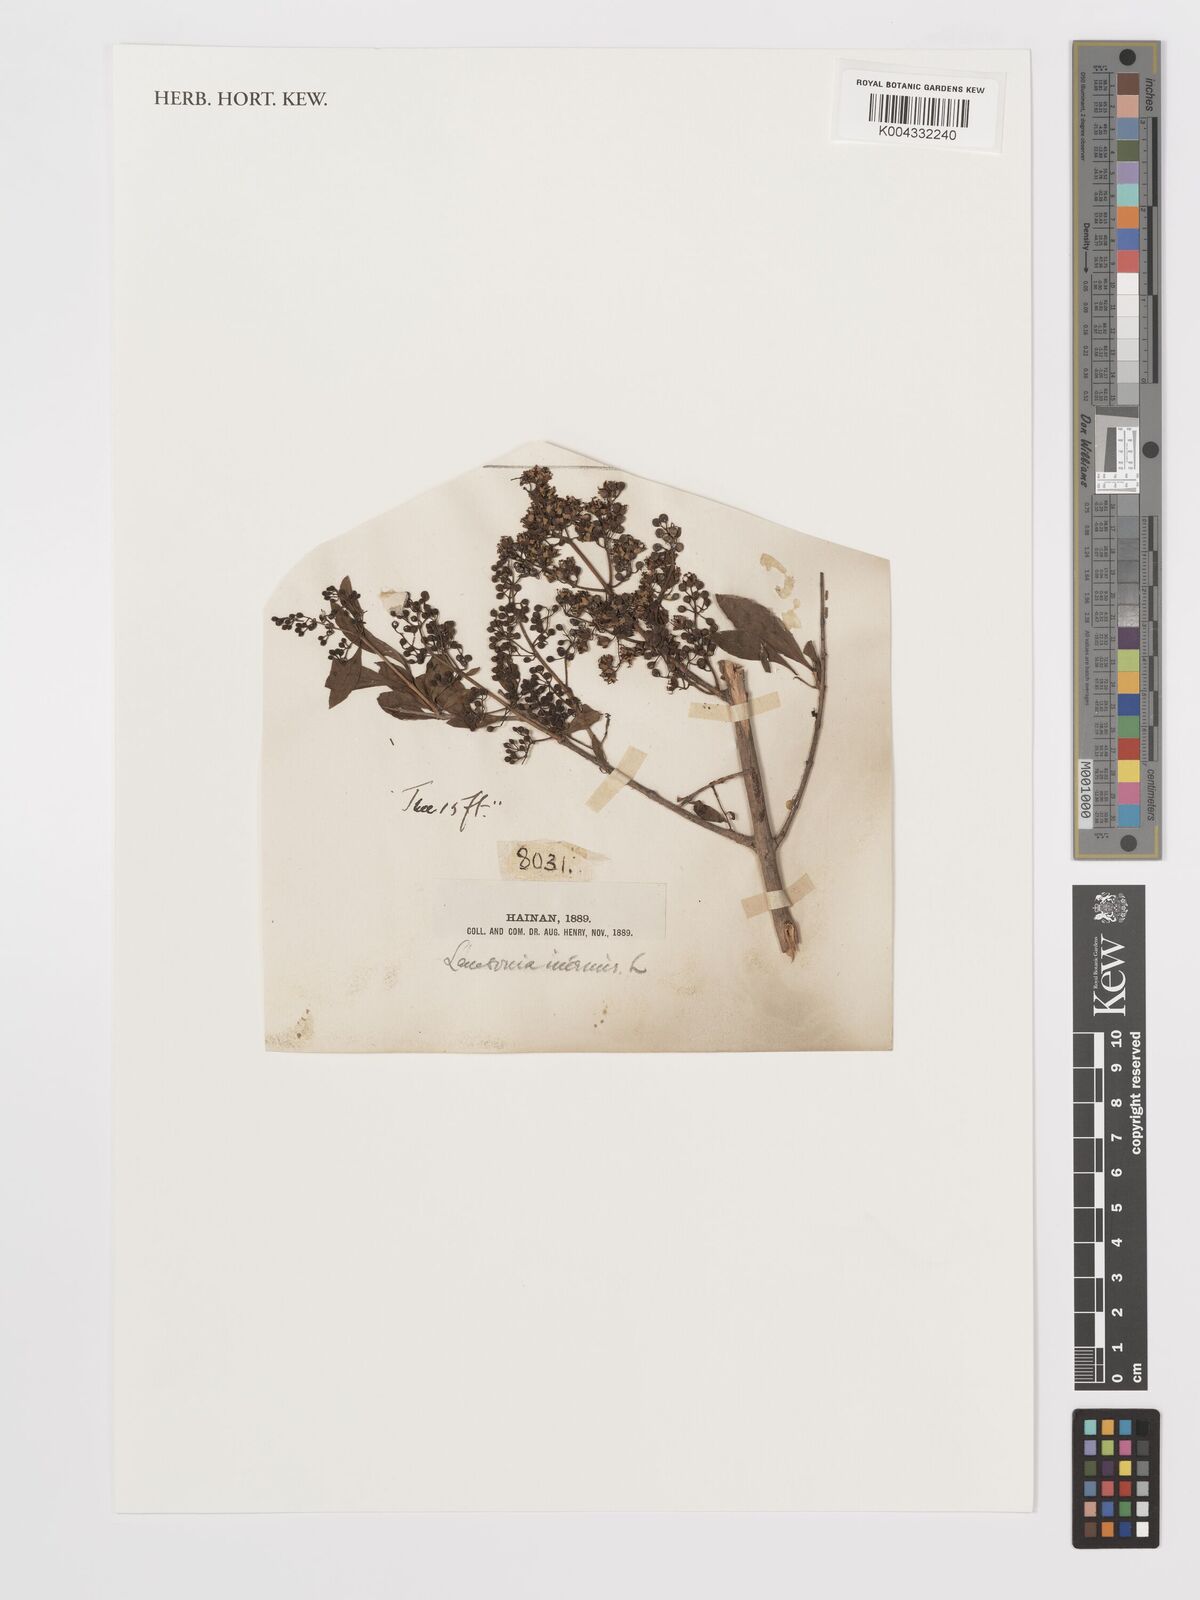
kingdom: Plantae
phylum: Tracheophyta
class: Magnoliopsida
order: Myrtales
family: Lythraceae
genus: Lawsonia
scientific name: Lawsonia inermis
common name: Henna
